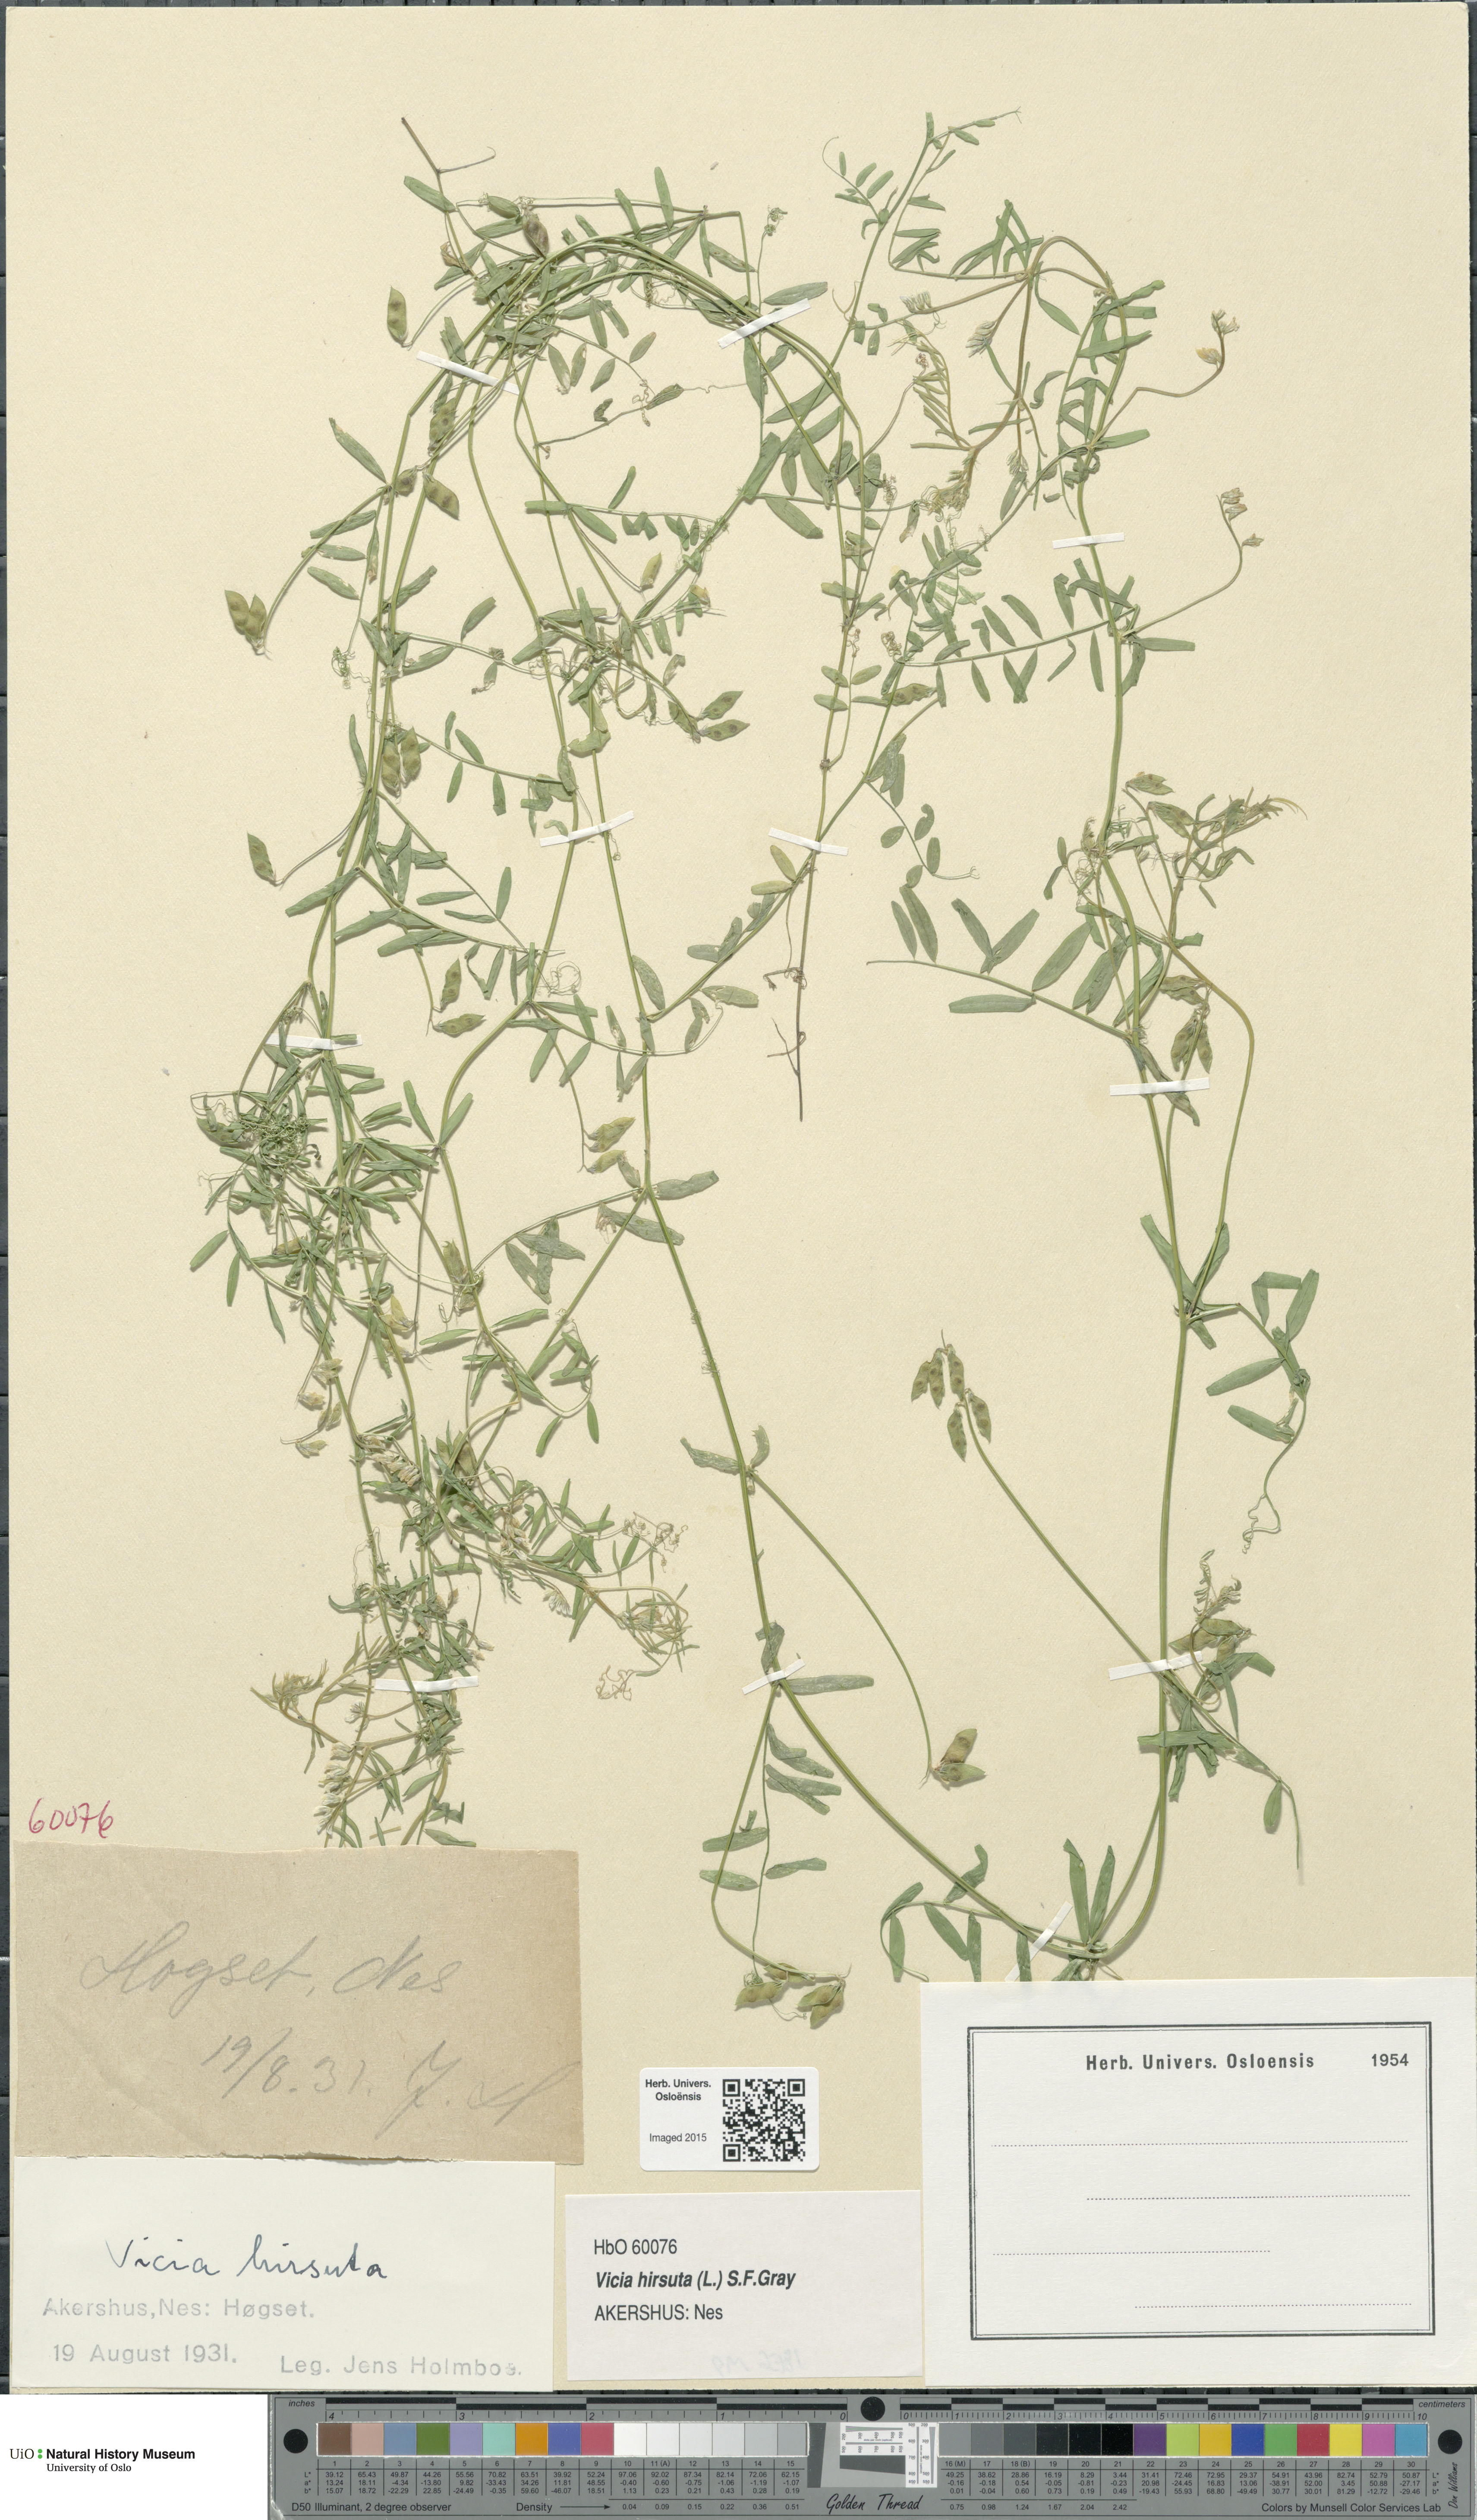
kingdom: Plantae
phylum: Tracheophyta
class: Magnoliopsida
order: Fabales
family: Fabaceae
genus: Vicia
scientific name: Vicia hirsuta
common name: Tiny vetch
